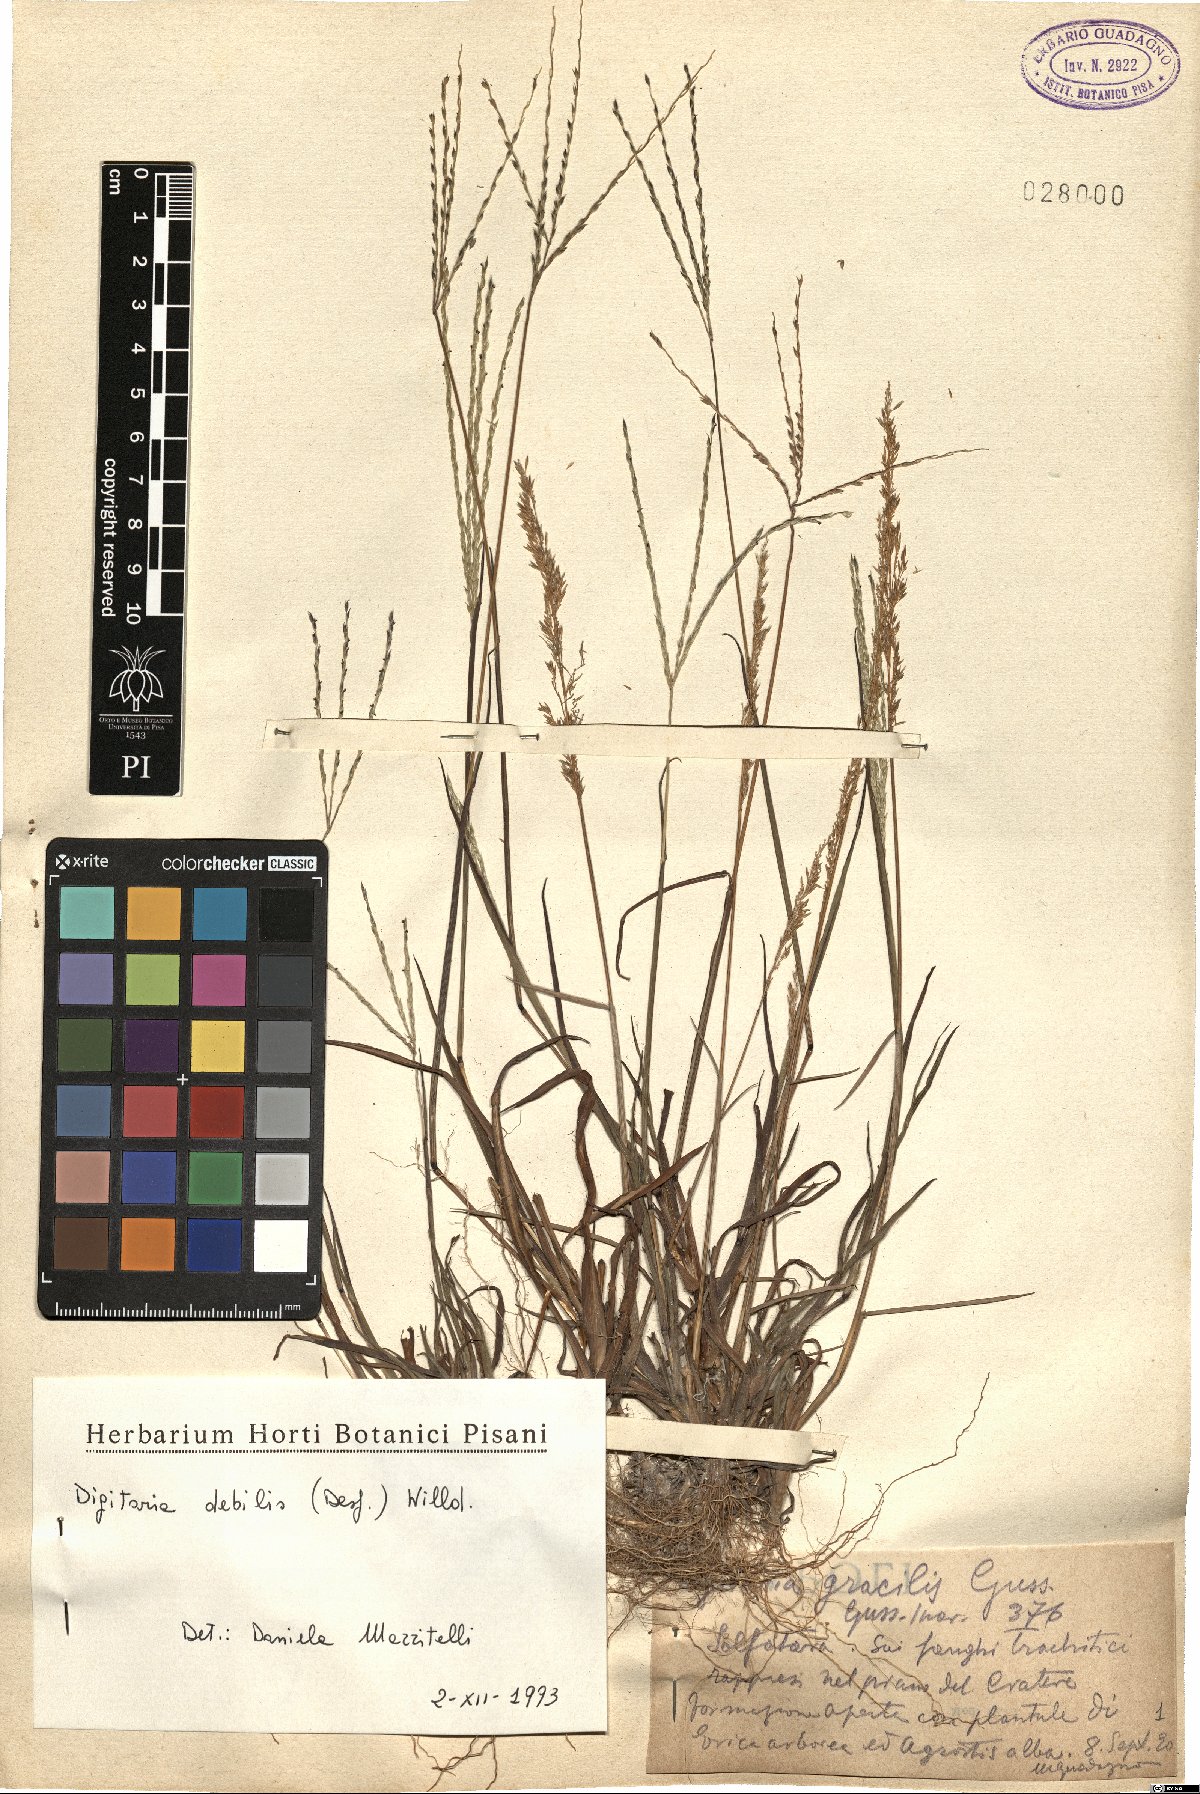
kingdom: Plantae
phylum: Tracheophyta
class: Liliopsida
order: Poales
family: Poaceae
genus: Digitaria
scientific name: Digitaria debilis
